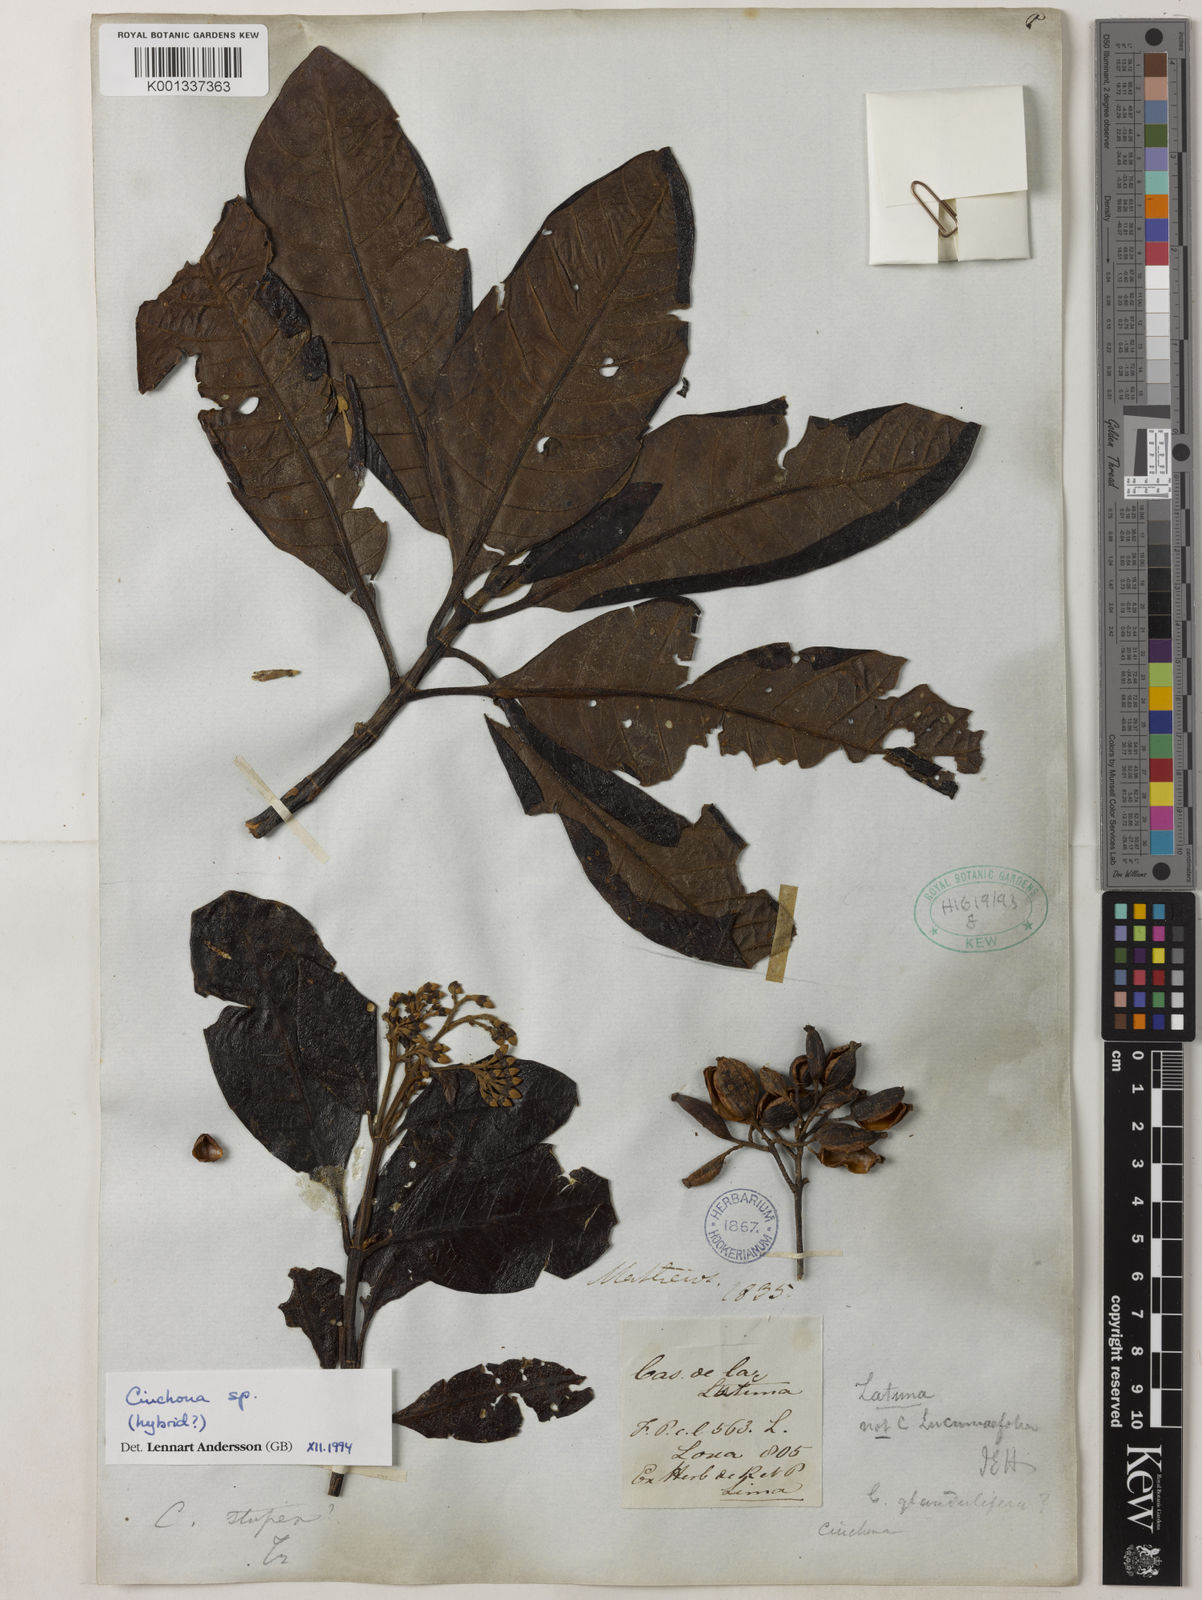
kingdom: Plantae
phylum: Tracheophyta
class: Magnoliopsida
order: Gentianales
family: Rubiaceae
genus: Cinchona
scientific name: Cinchona
